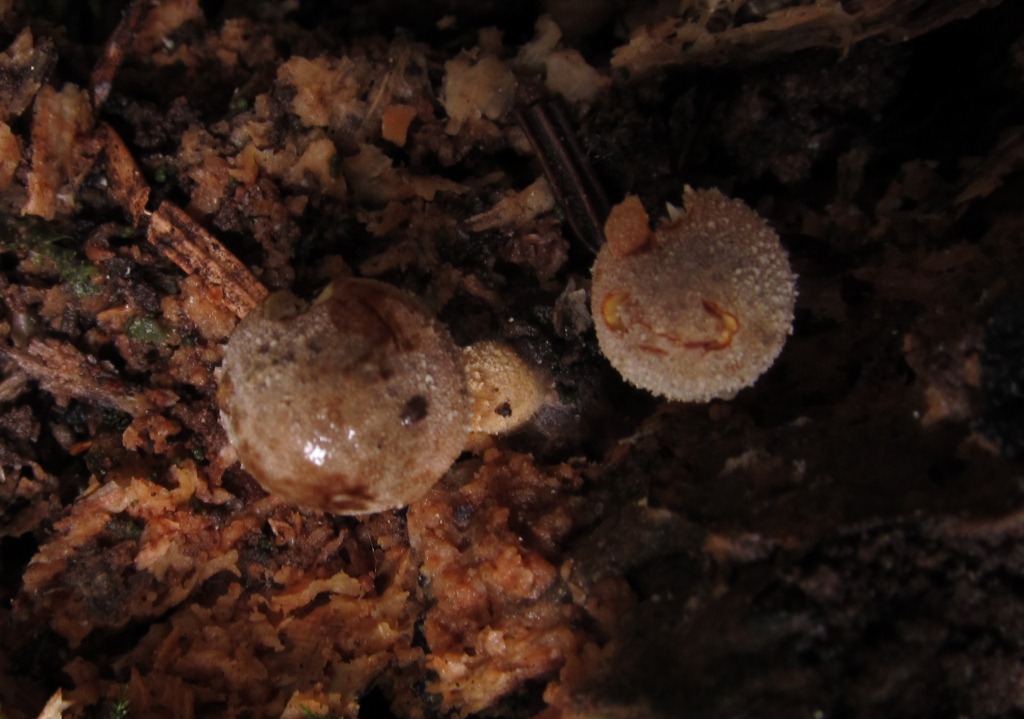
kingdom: Fungi
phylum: Basidiomycota
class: Agaricomycetes
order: Agaricales
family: Tricholomataceae
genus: Cystoderma
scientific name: Cystoderma simulatum
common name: ved-grynhat
